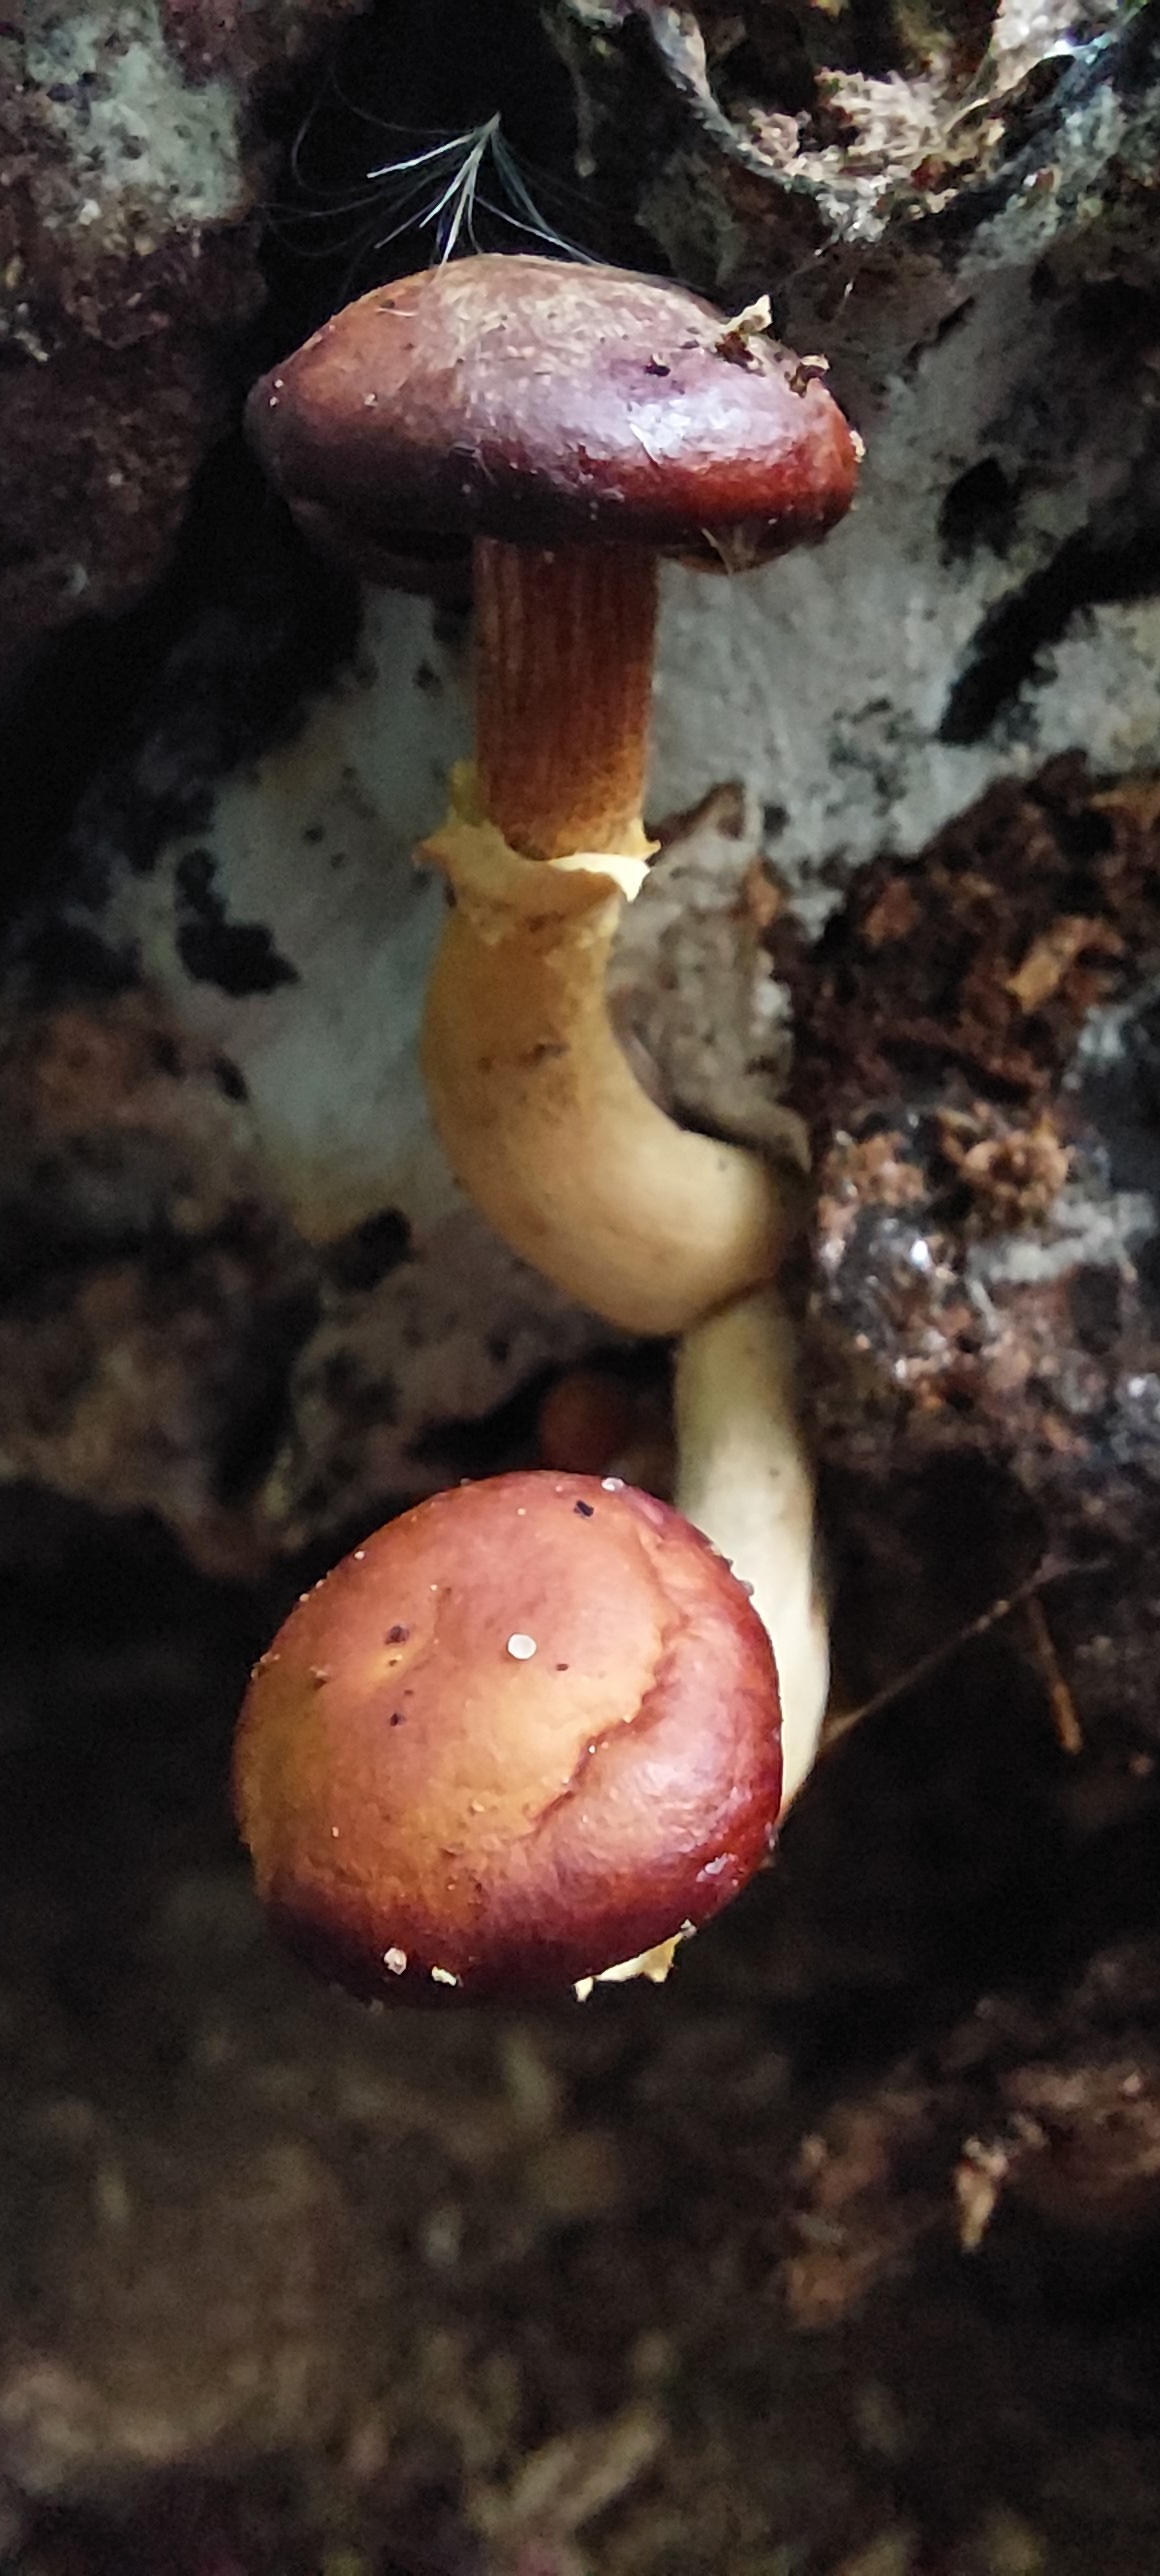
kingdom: Fungi
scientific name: Fungi
